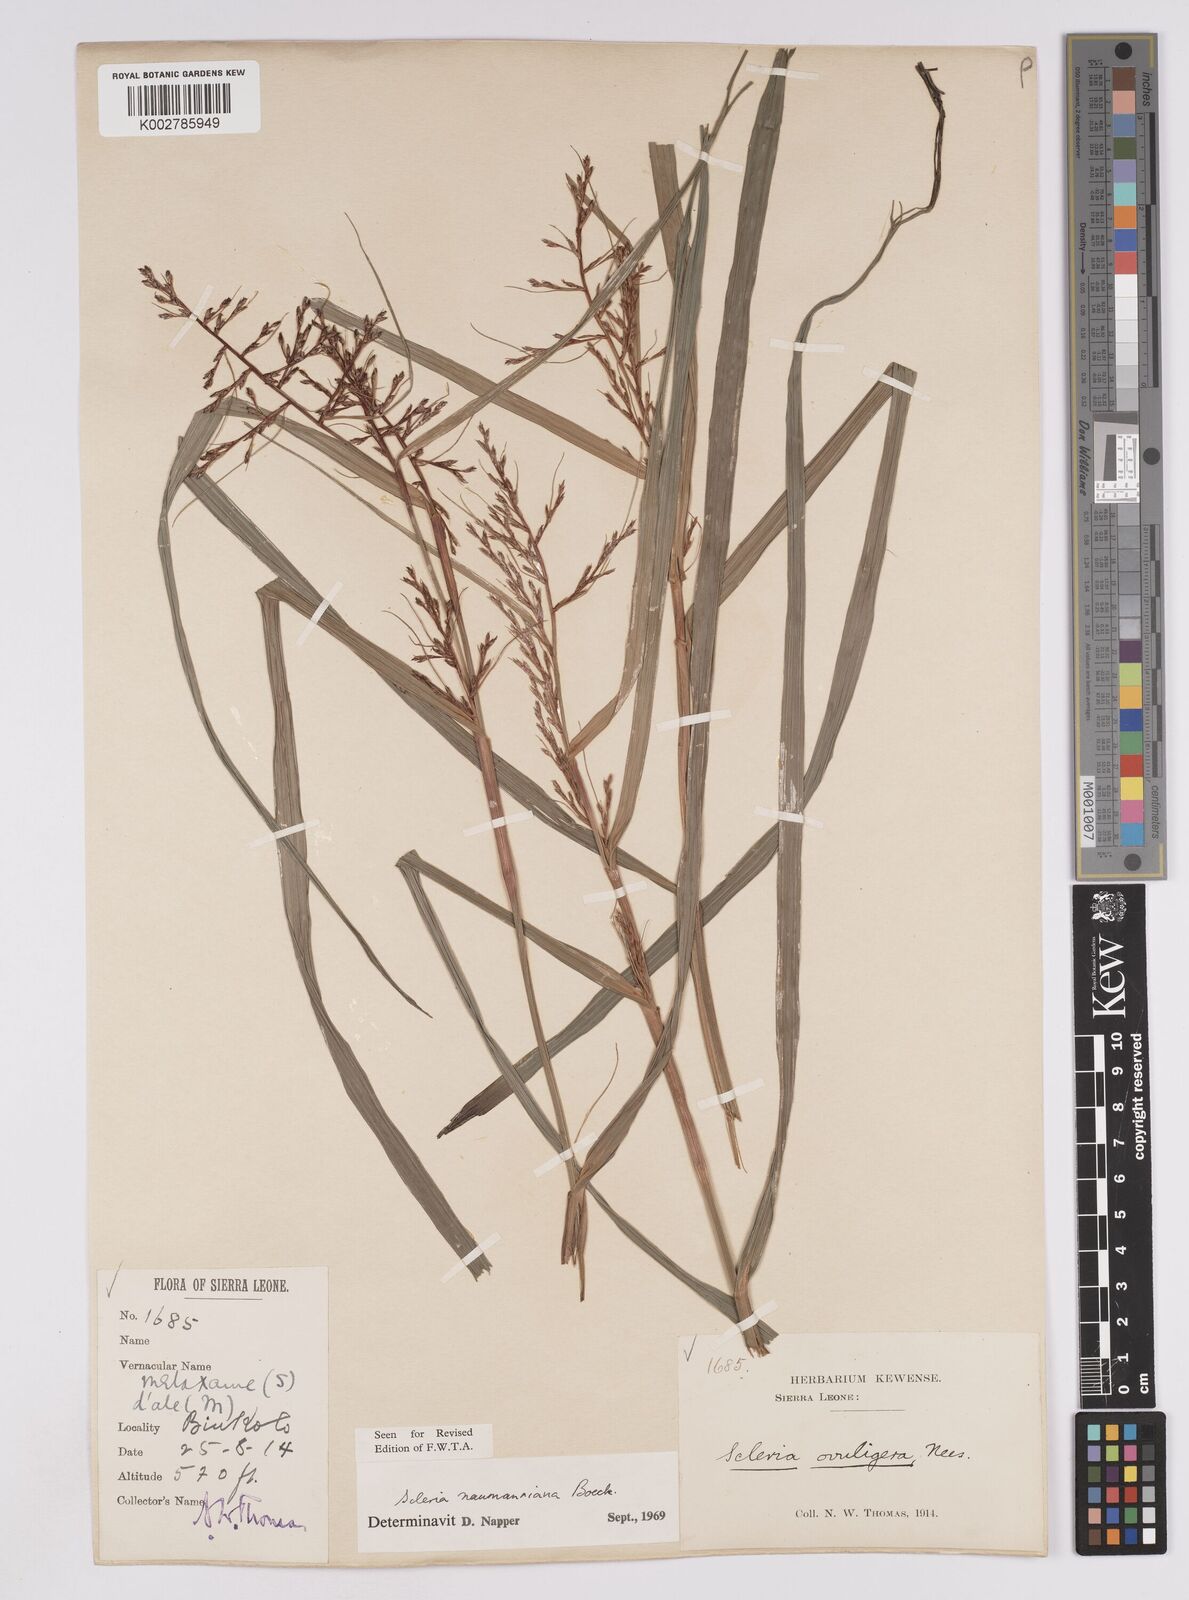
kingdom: Plantae
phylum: Tracheophyta
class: Liliopsida
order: Poales
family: Cyperaceae
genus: Scleria
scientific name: Scleria naumanniana
